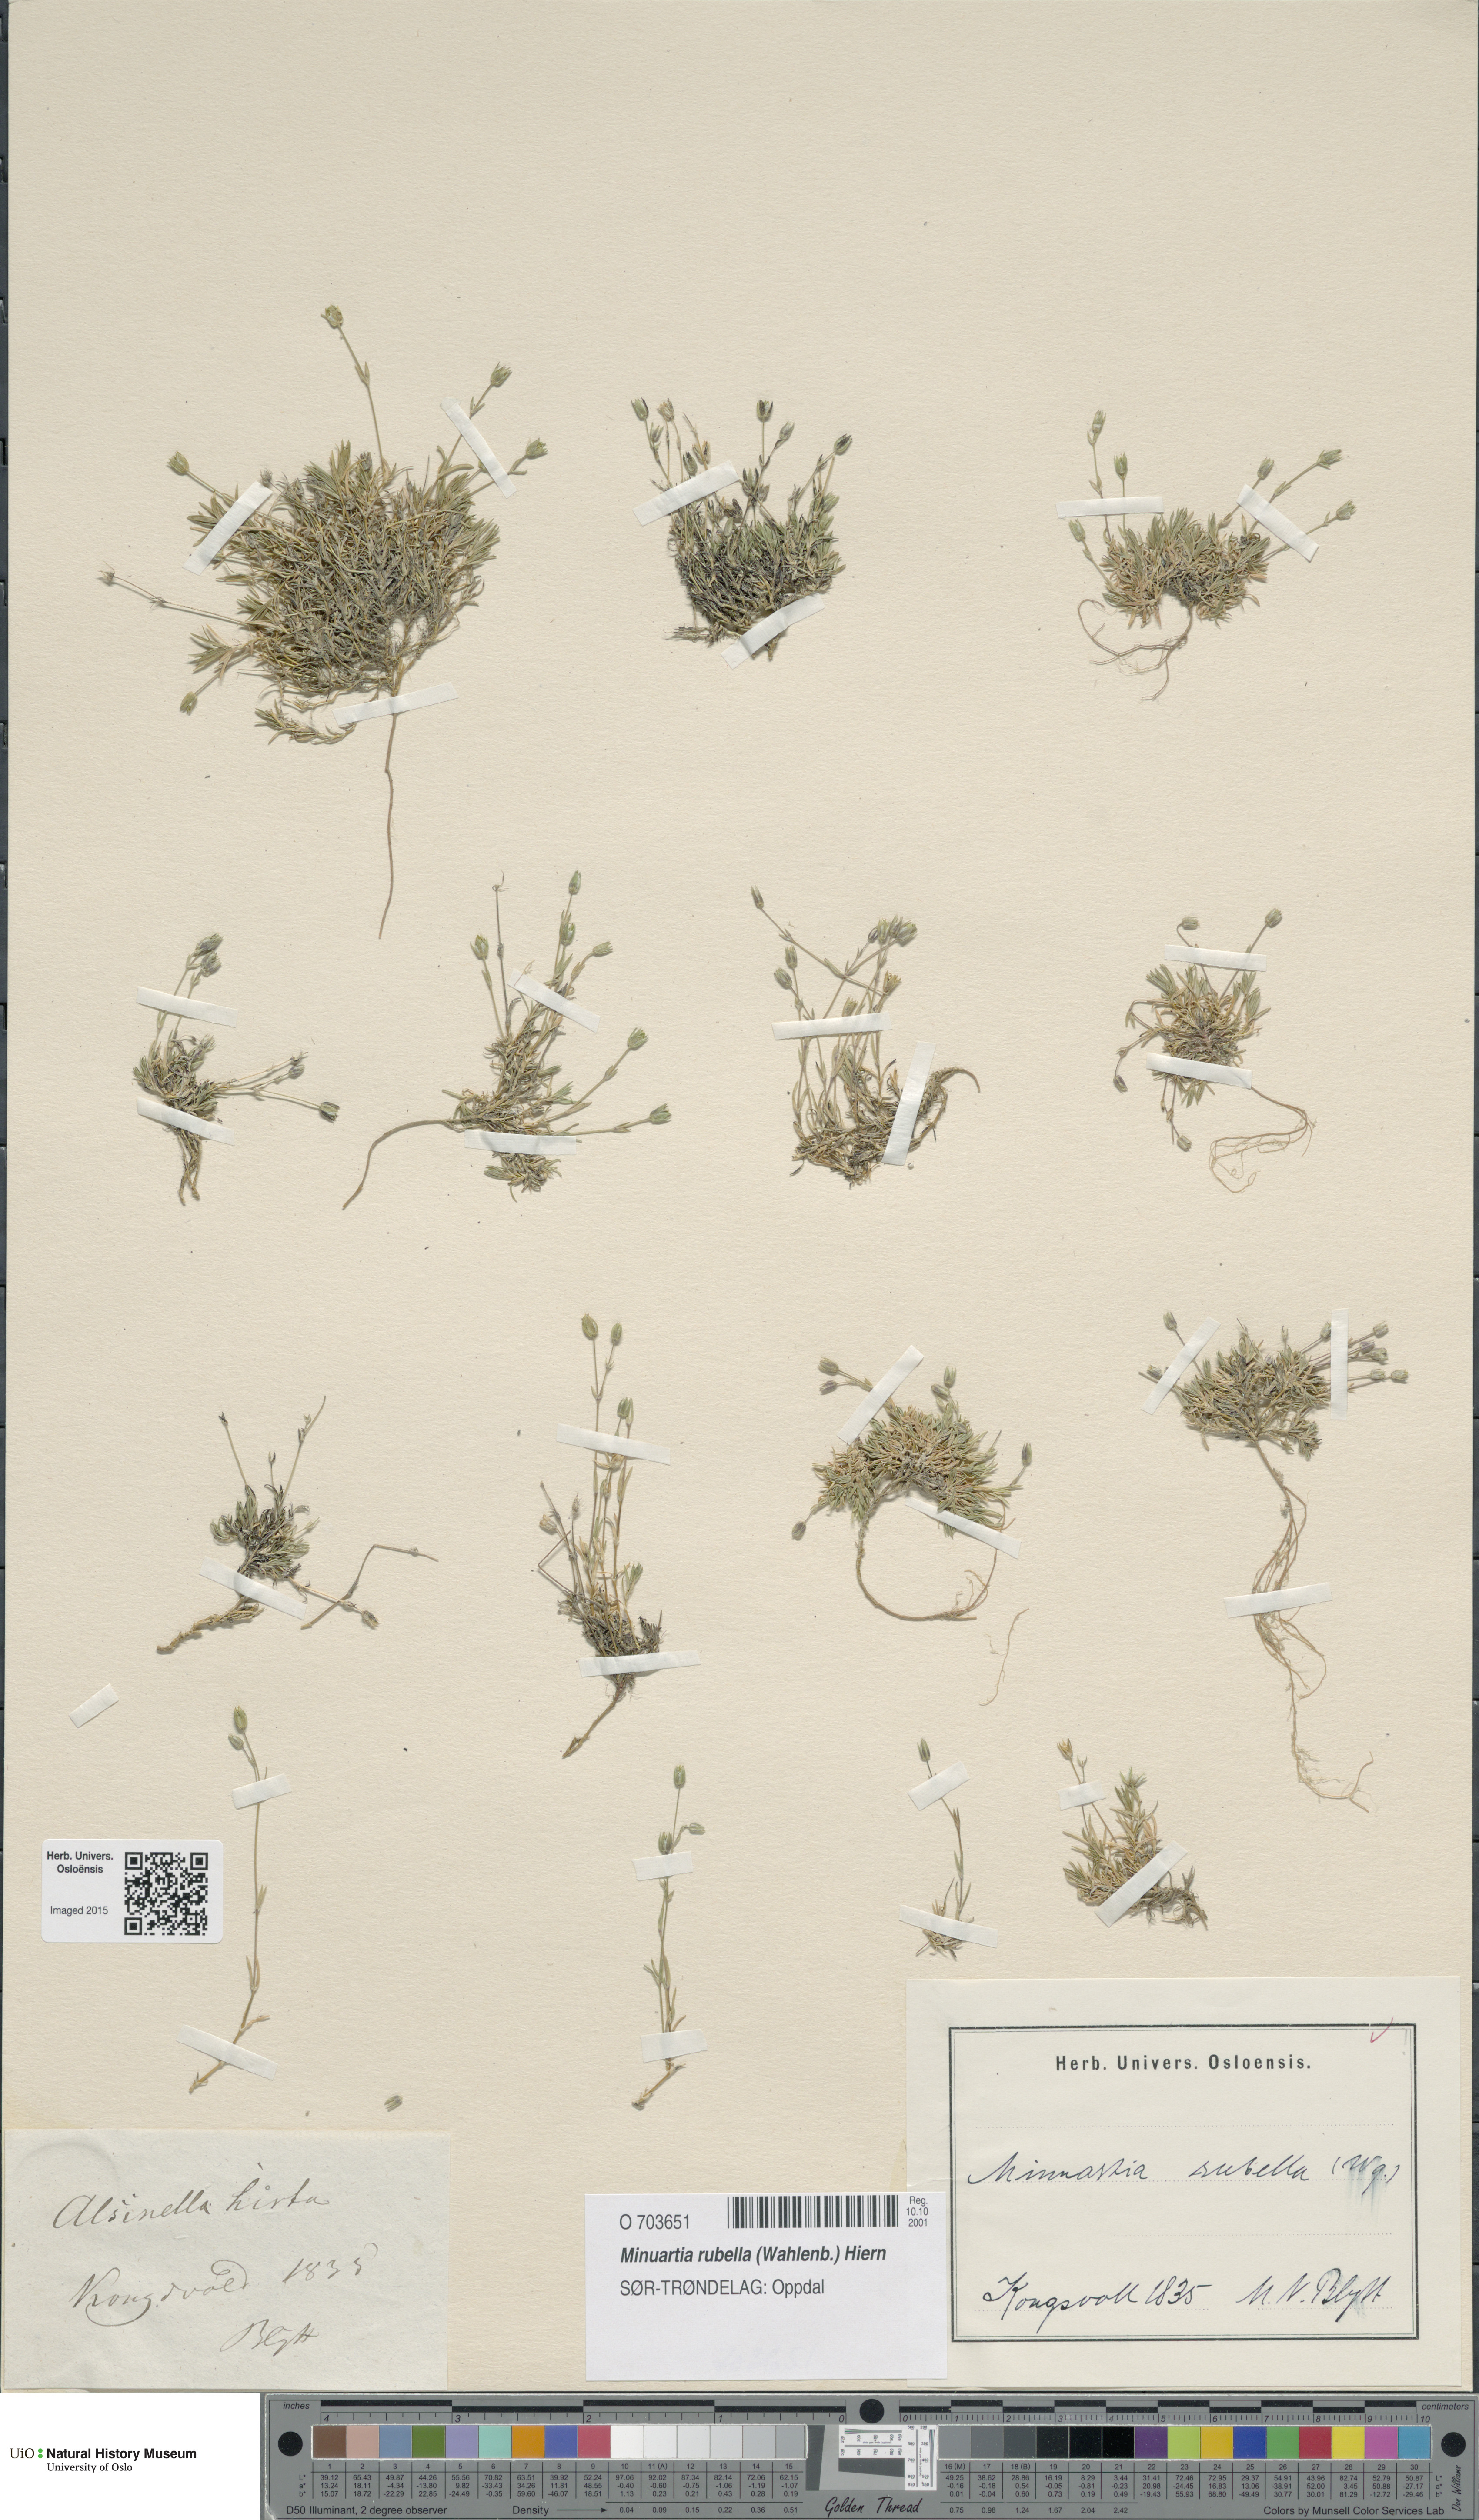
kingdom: Plantae
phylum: Tracheophyta
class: Magnoliopsida
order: Caryophyllales
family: Caryophyllaceae
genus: Sabulina
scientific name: Sabulina rubella
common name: Beautiful sandwort
